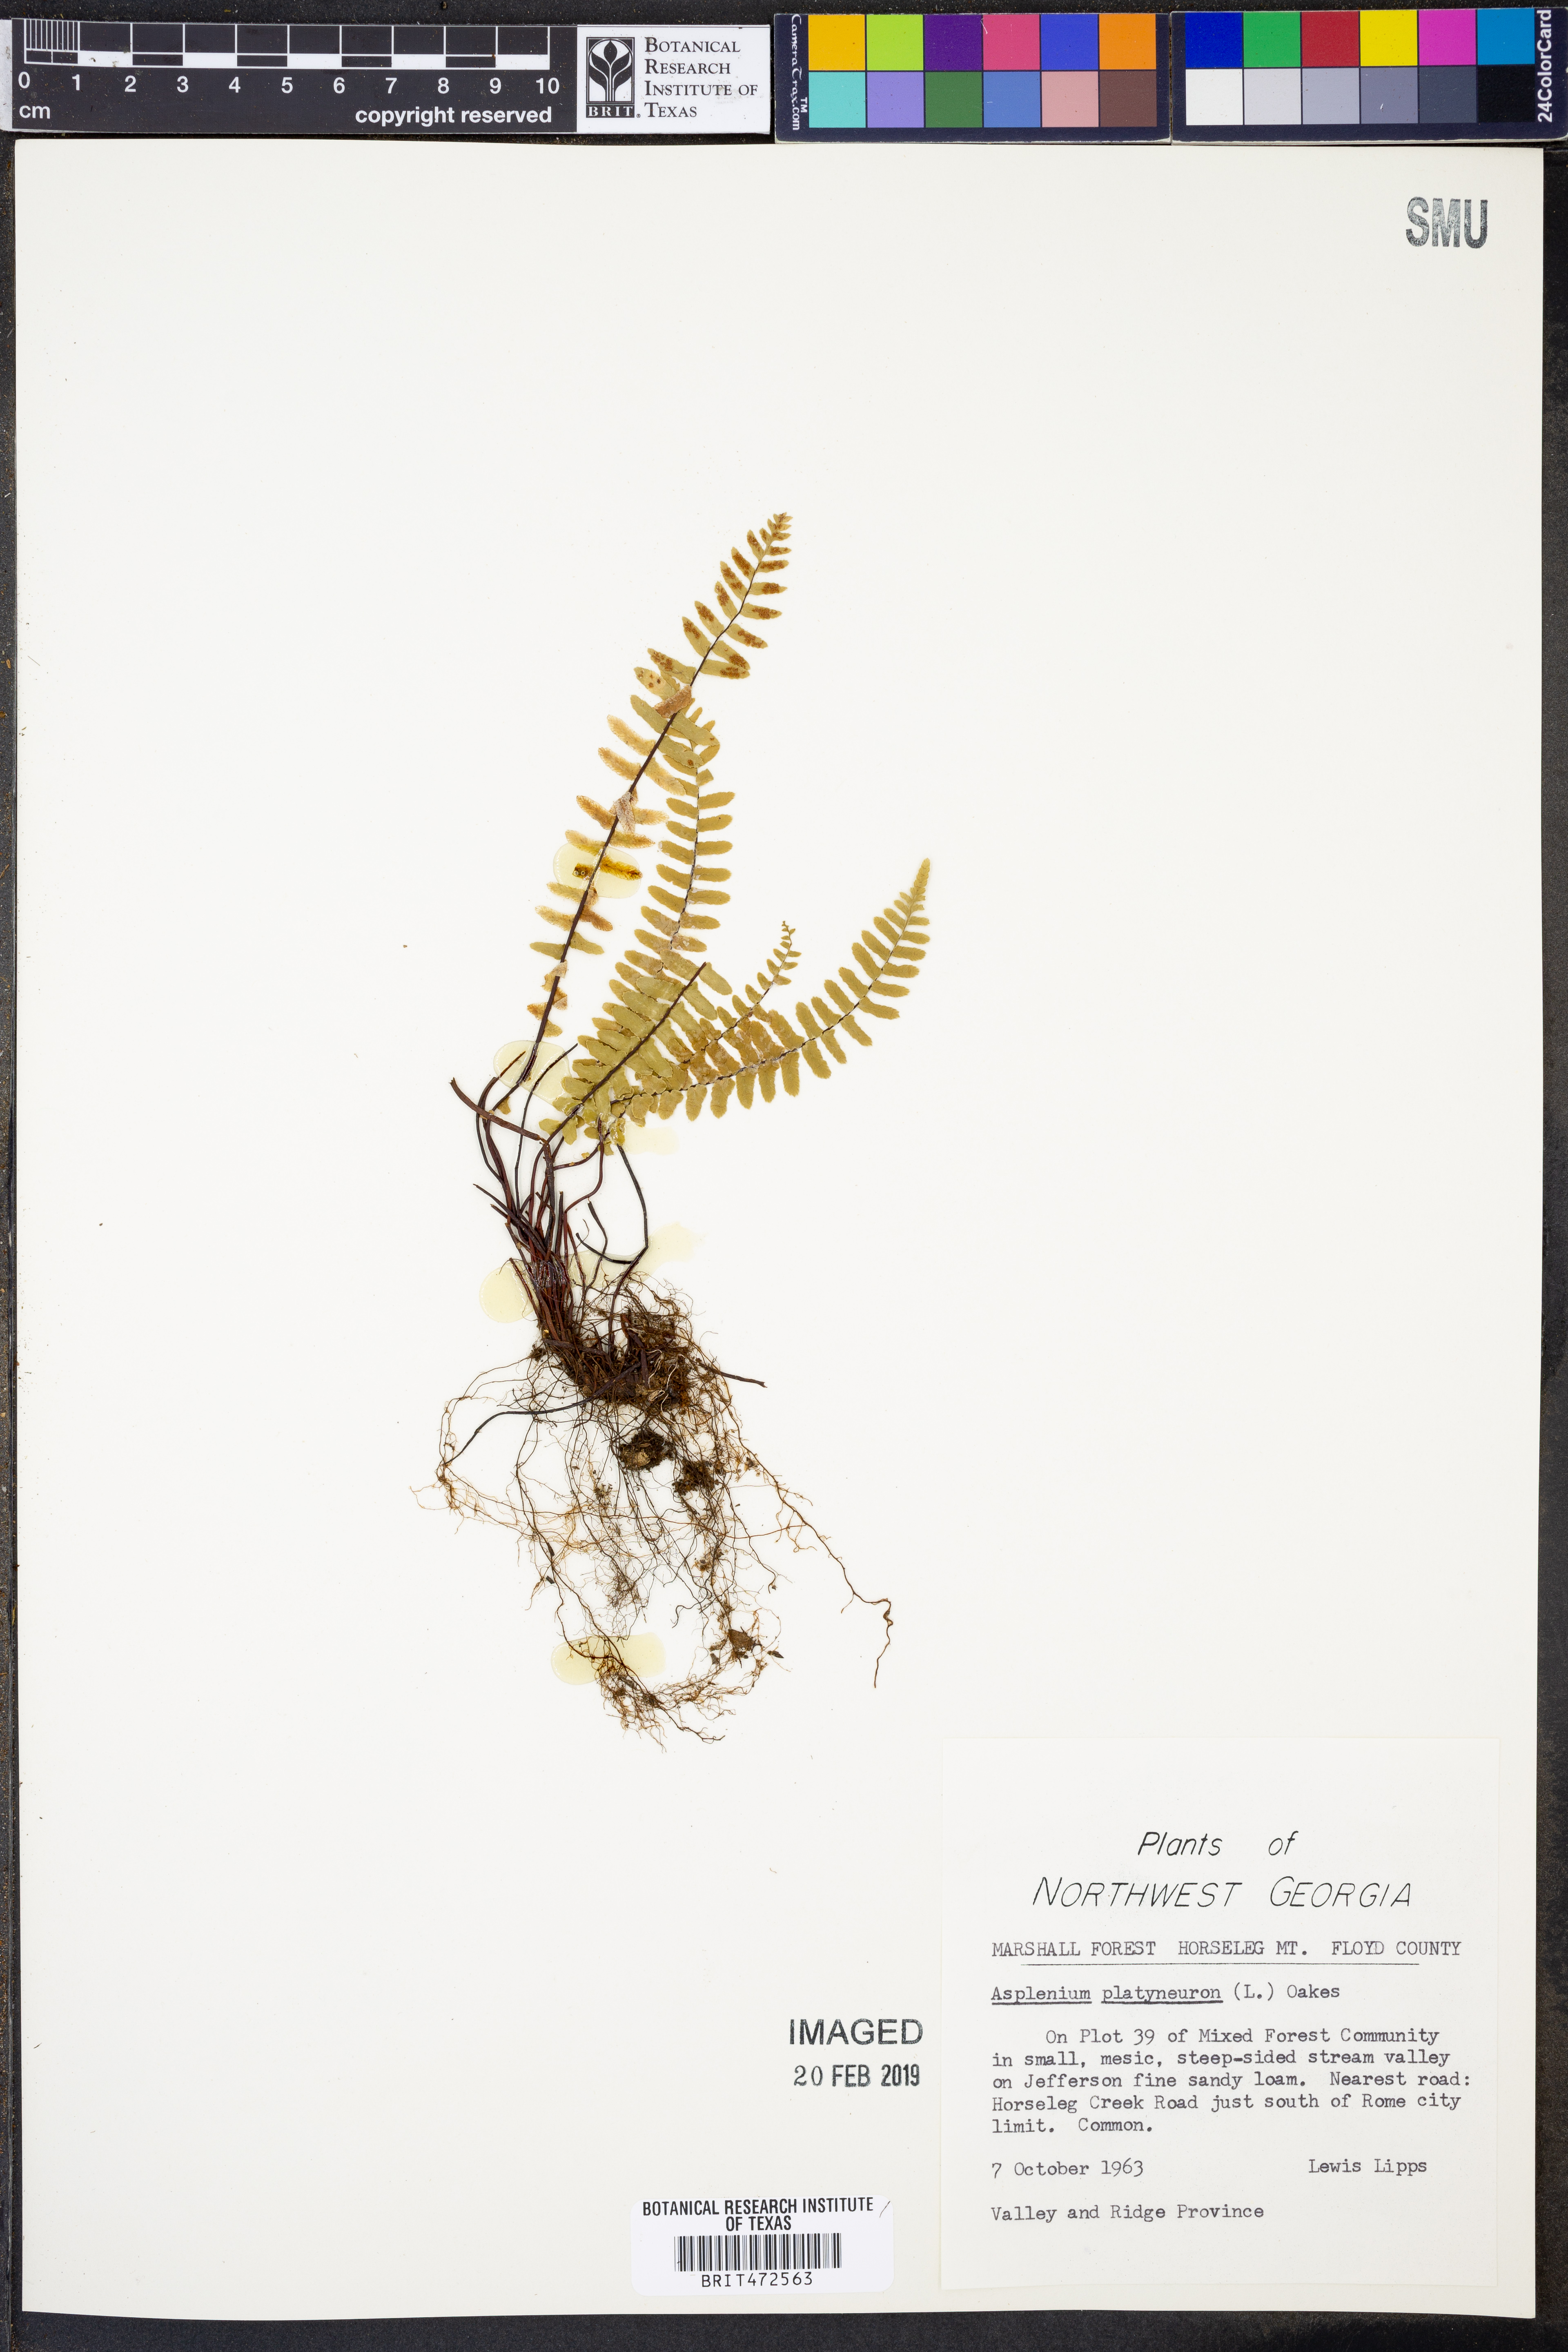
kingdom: Plantae
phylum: Tracheophyta
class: Polypodiopsida
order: Polypodiales
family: Aspleniaceae
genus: Asplenium
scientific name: Asplenium platyneuron
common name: Ebony spleenwort
